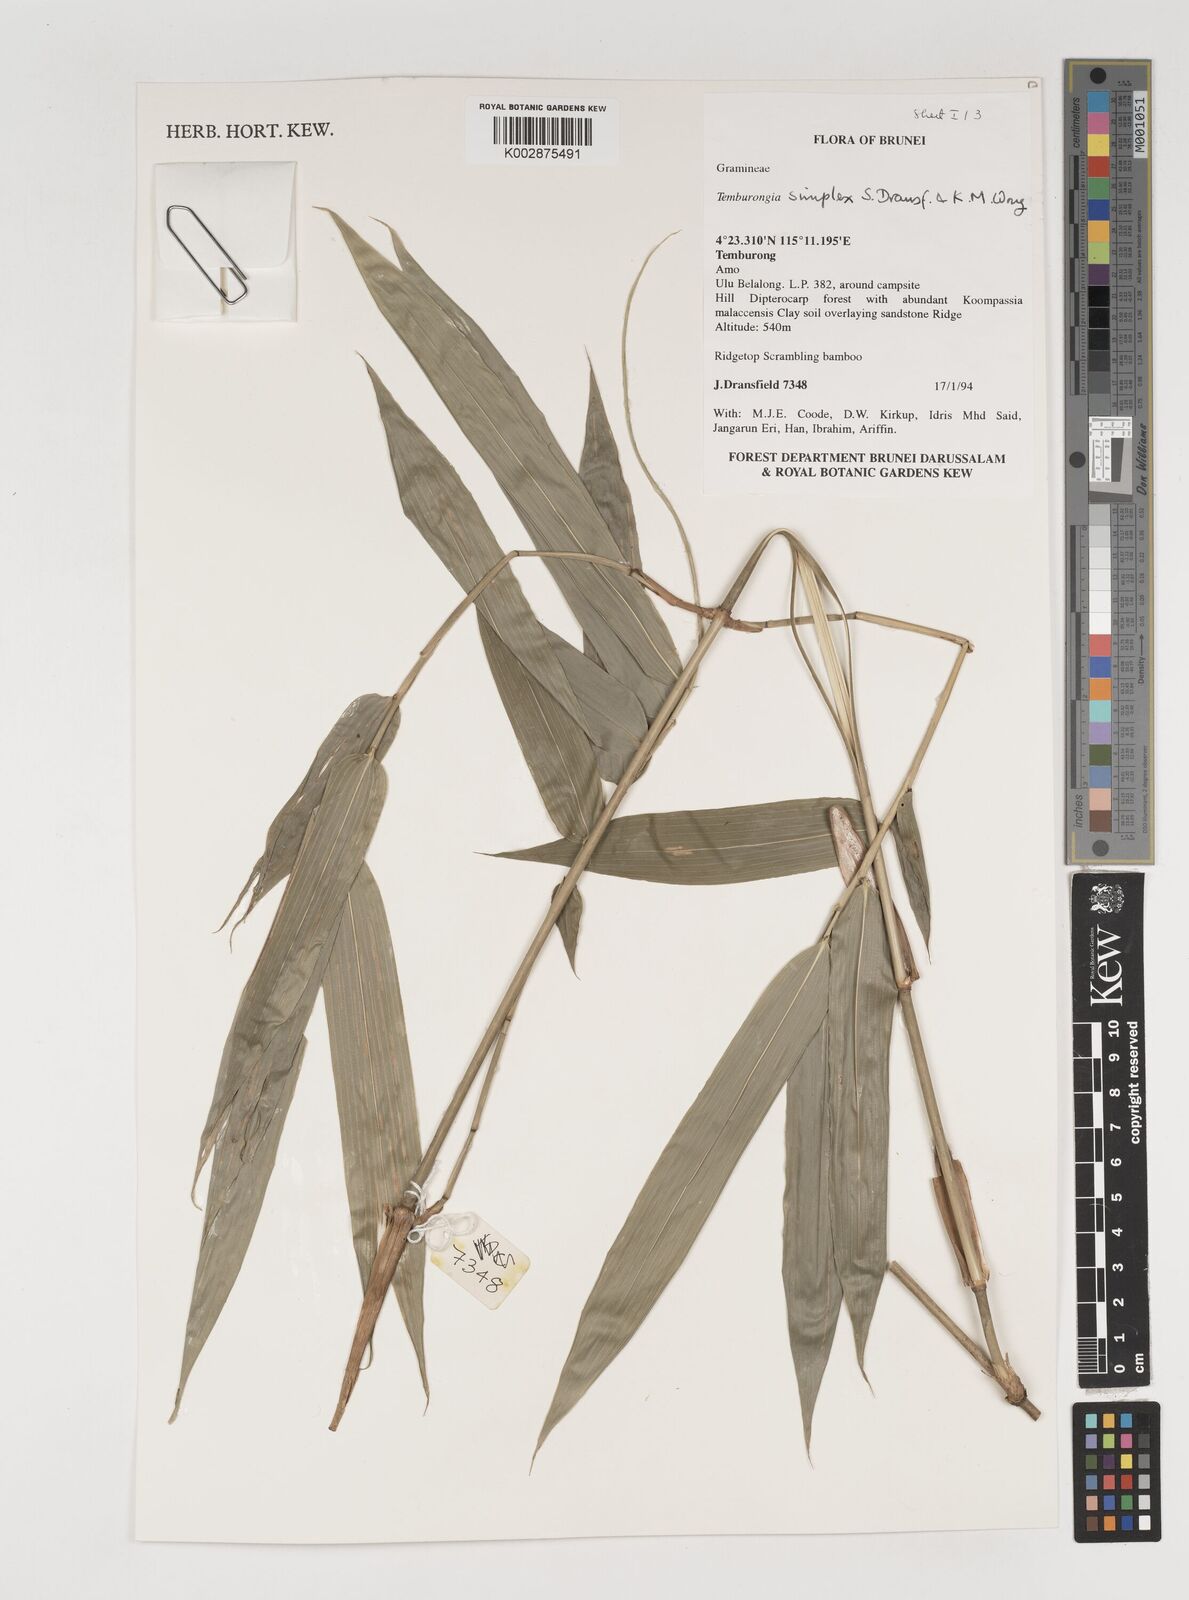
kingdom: Plantae
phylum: Tracheophyta
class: Liliopsida
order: Poales
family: Poaceae
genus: Temburongia
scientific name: Temburongia
